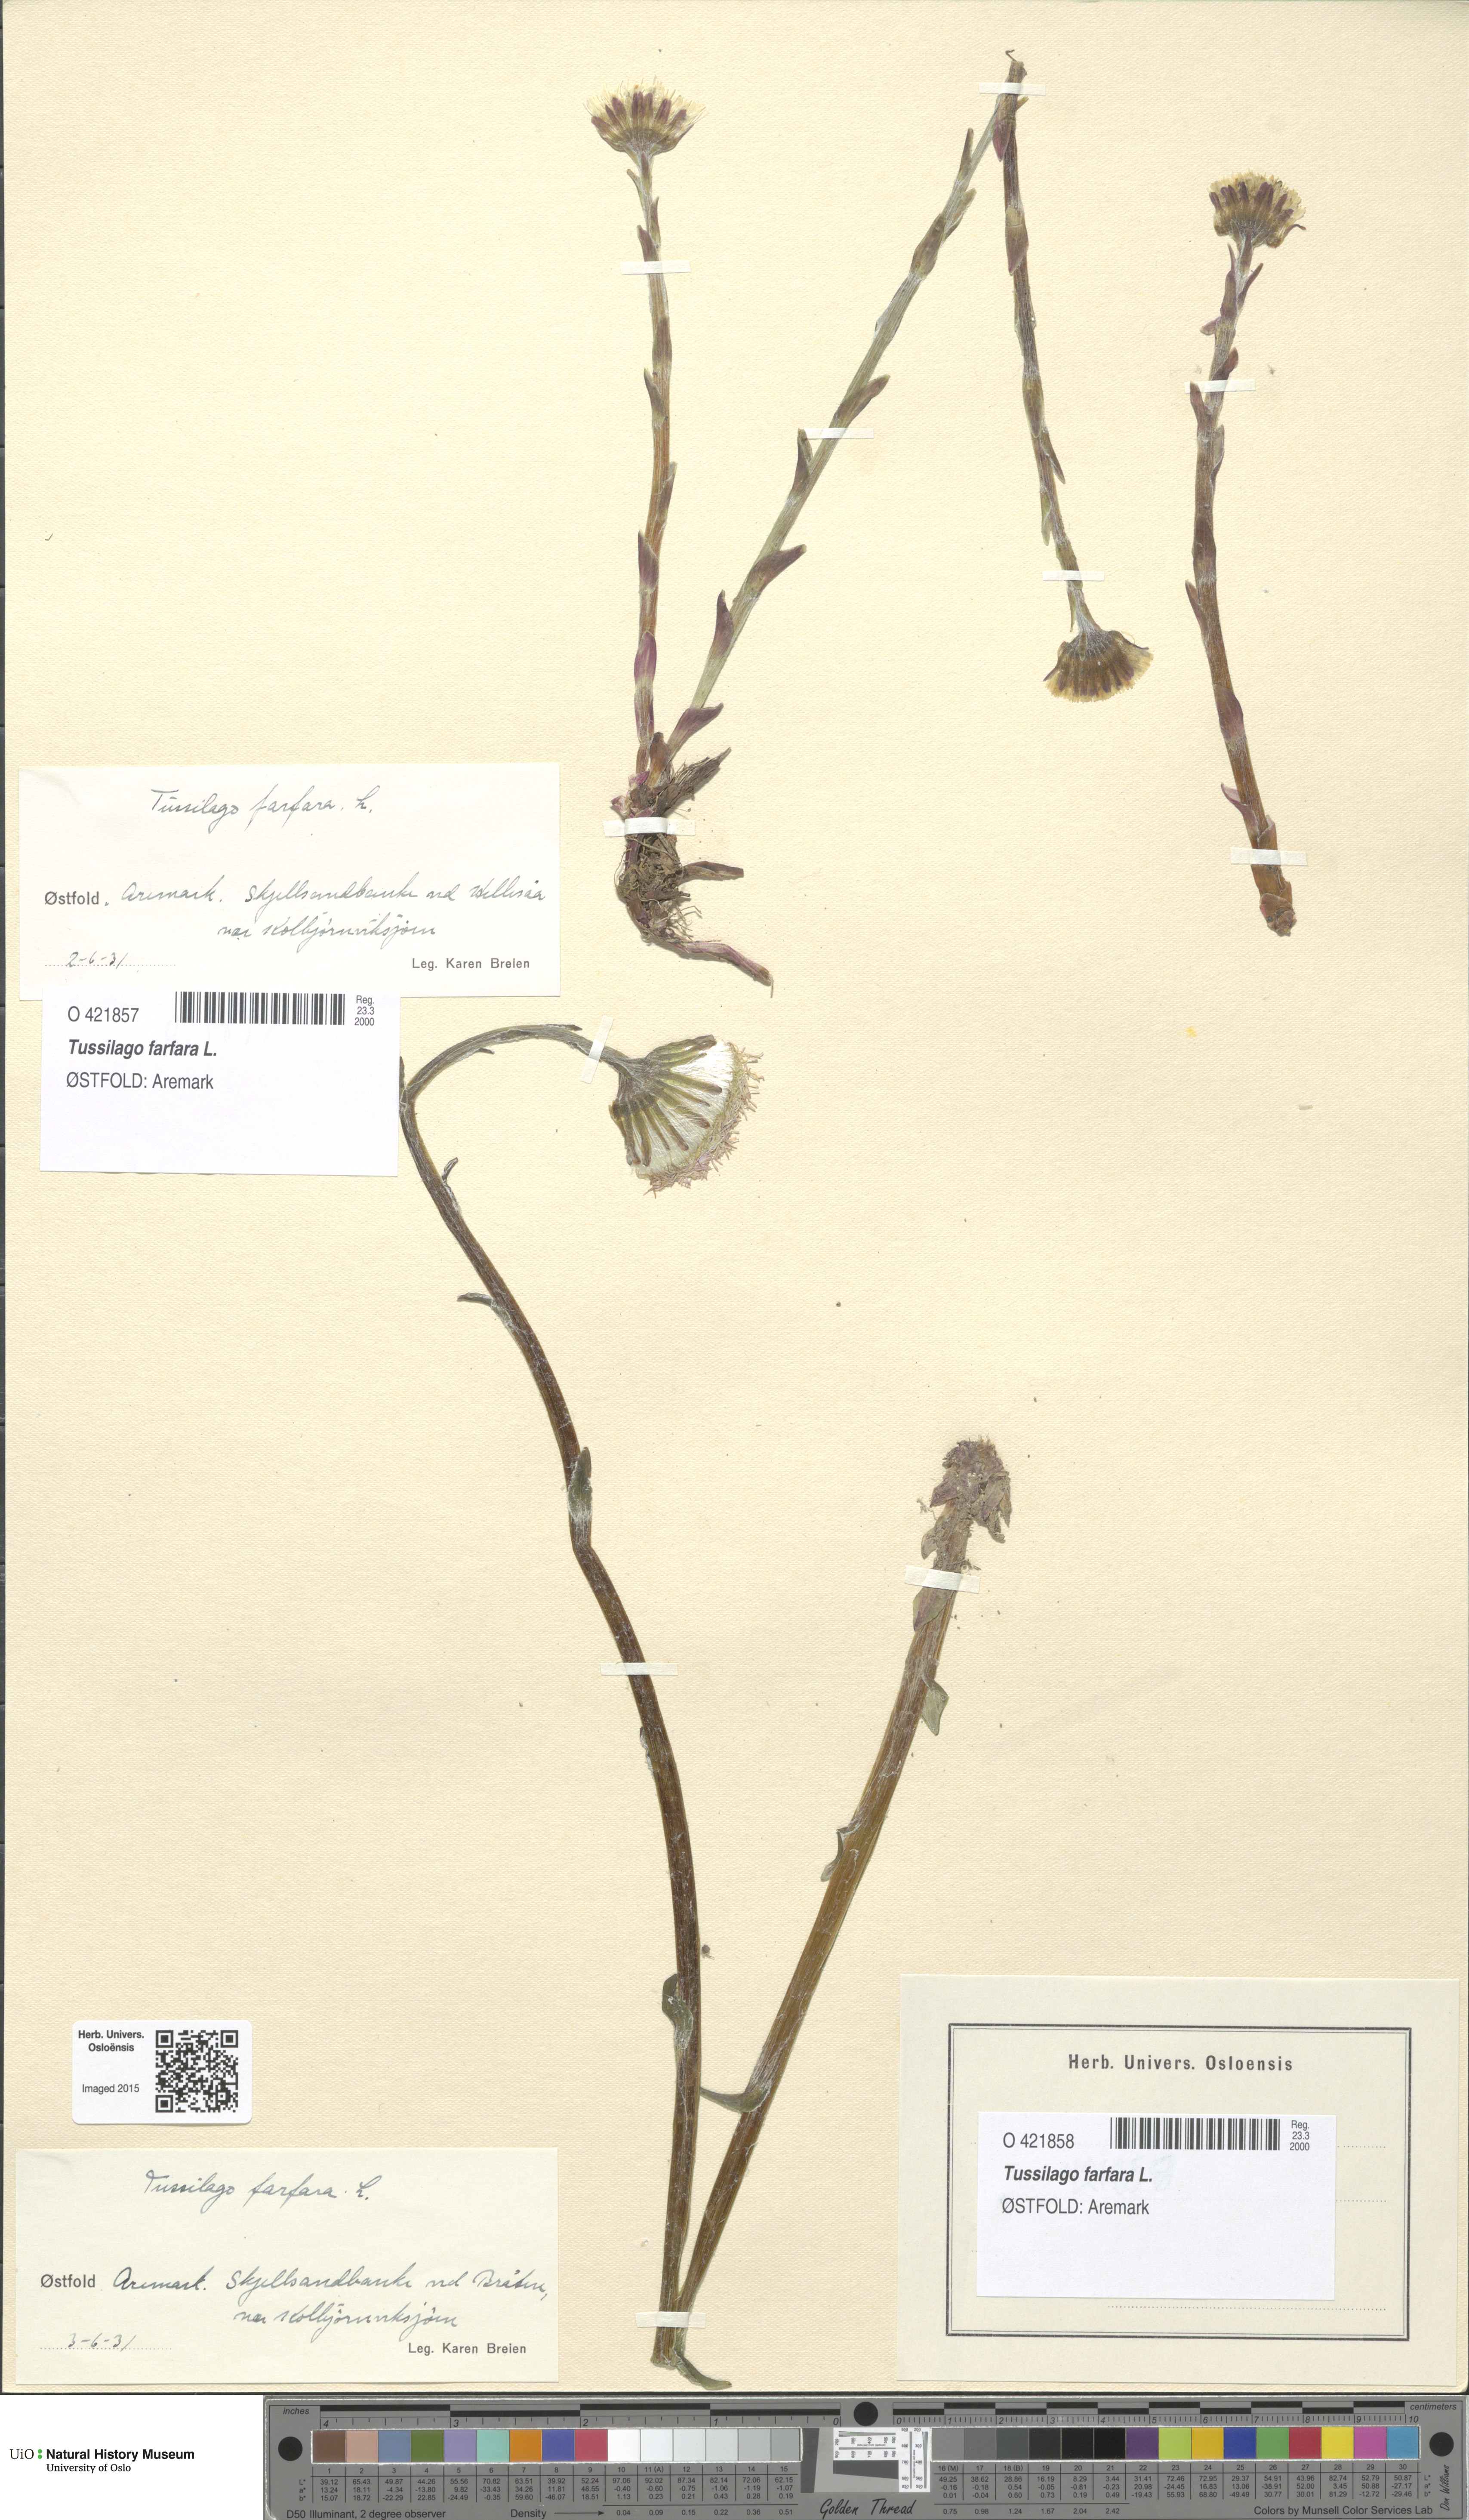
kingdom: Plantae
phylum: Tracheophyta
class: Magnoliopsida
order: Asterales
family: Asteraceae
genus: Tussilago
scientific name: Tussilago farfara
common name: Coltsfoot
